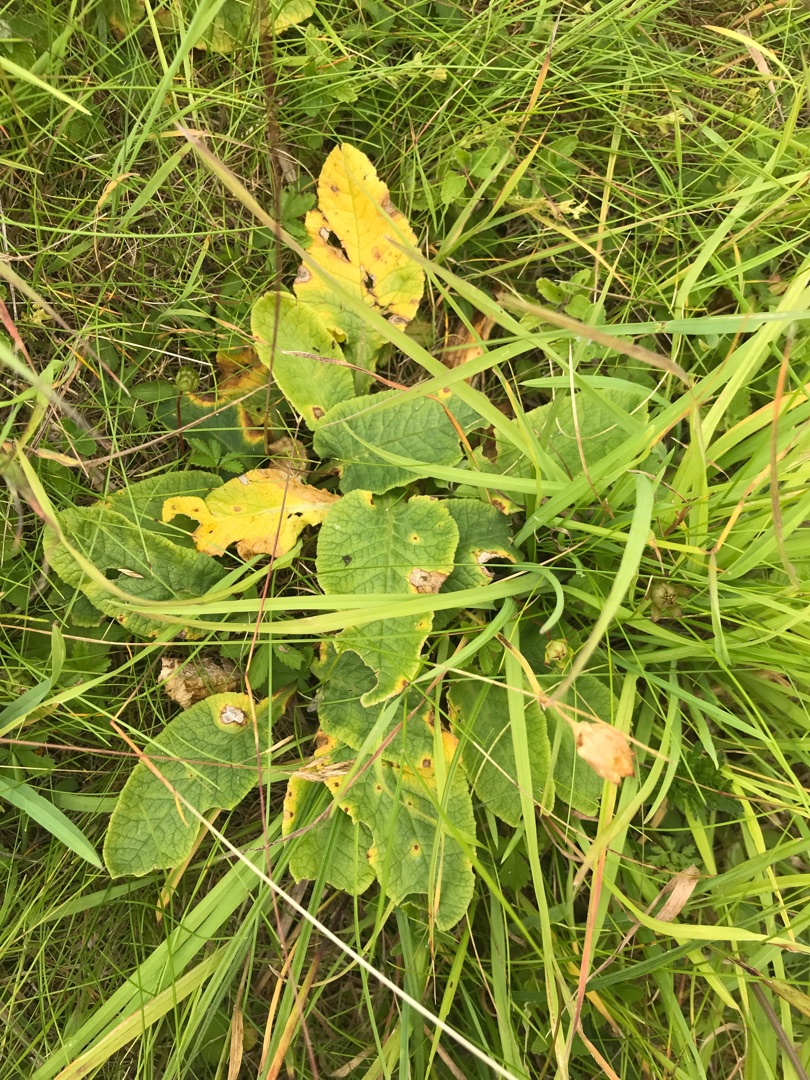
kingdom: Plantae
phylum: Tracheophyta
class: Magnoliopsida
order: Ericales
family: Primulaceae
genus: Primula
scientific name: Primula veris
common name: Hulkravet kodriver
